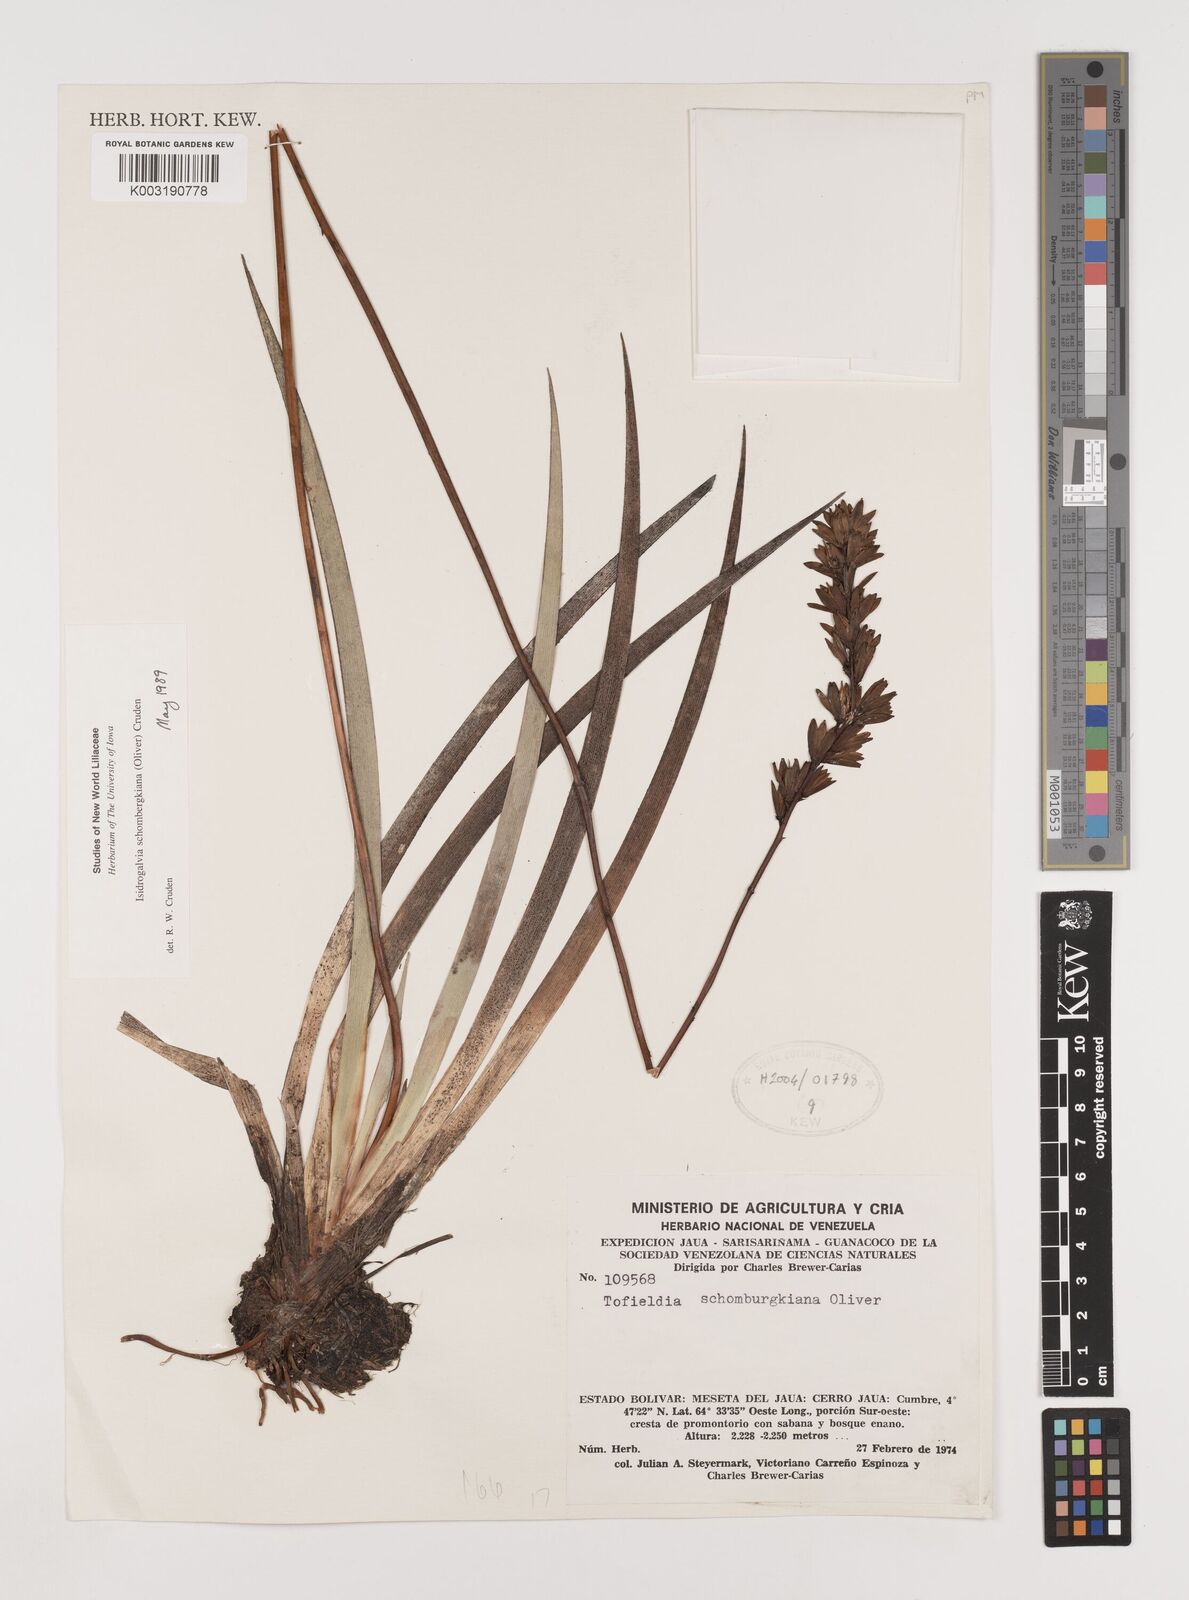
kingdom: Plantae
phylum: Tracheophyta
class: Liliopsida
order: Alismatales
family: Tofieldiaceae
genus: Harperocallis
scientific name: Harperocallis schomburgkiana
